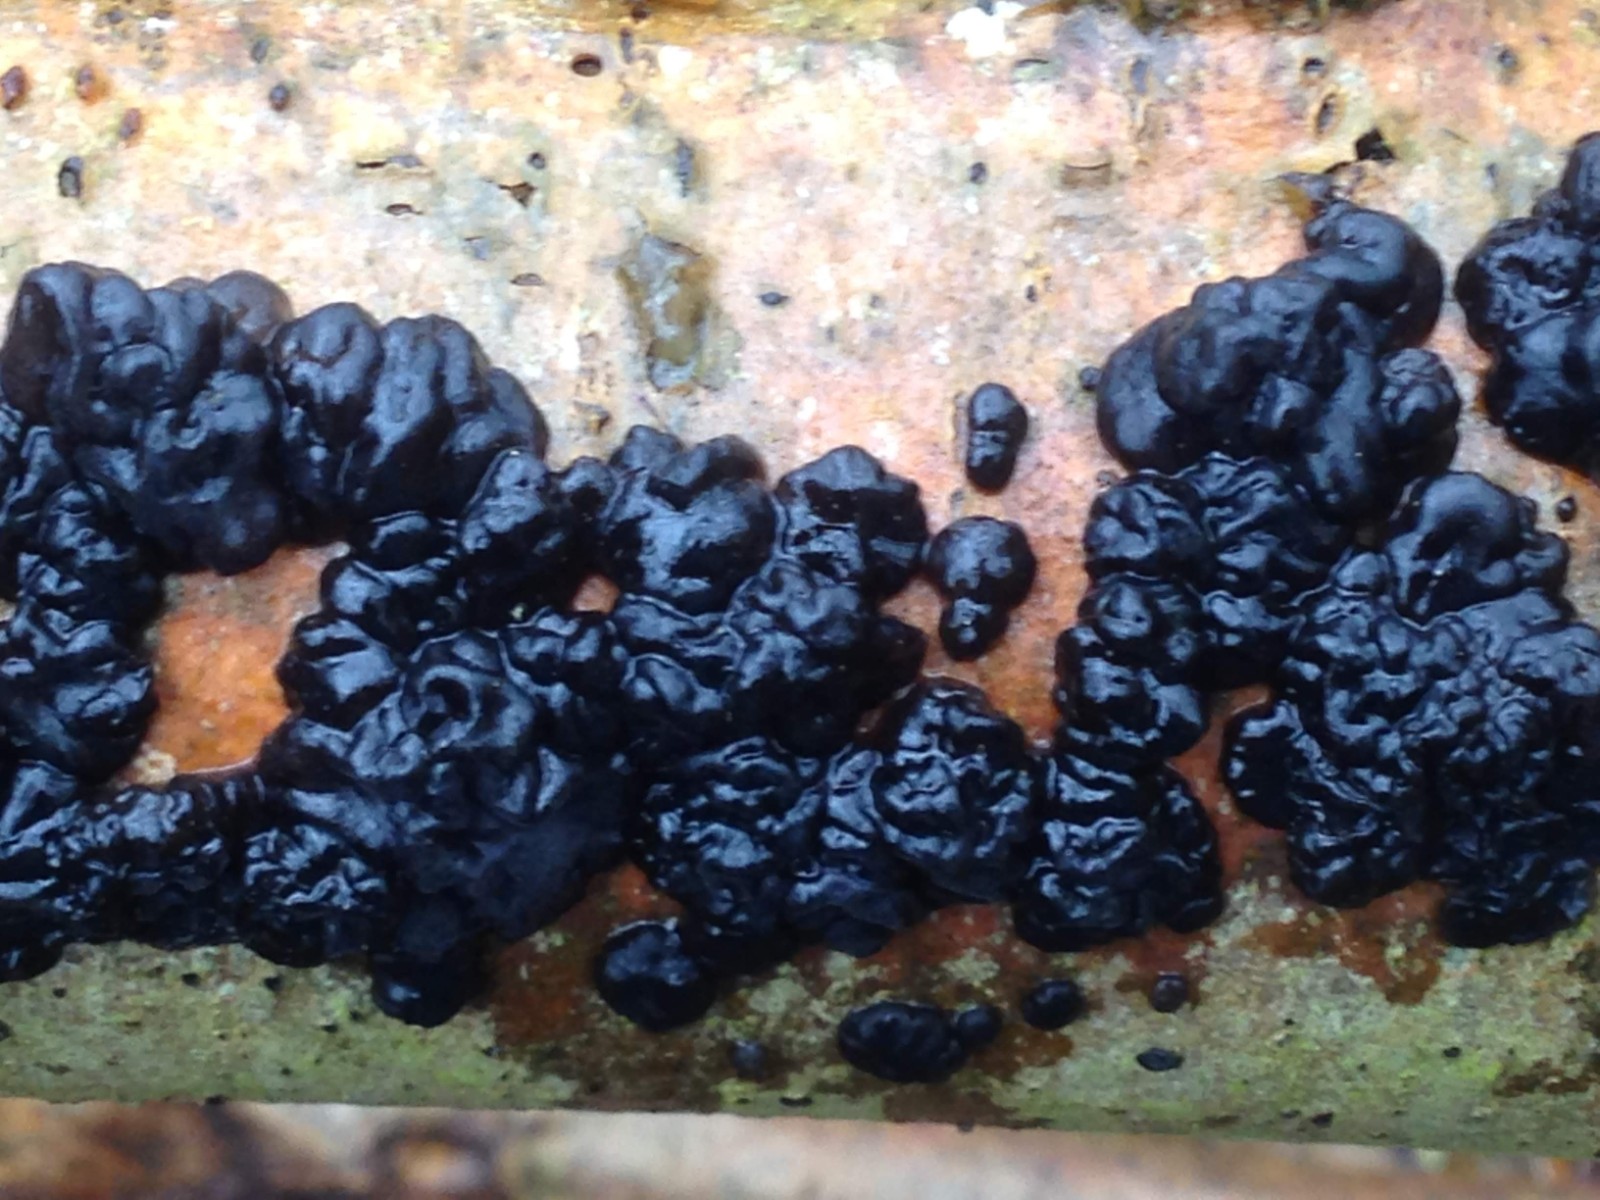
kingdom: Fungi
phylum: Basidiomycota
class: Agaricomycetes
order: Auriculariales
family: Auriculariaceae
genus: Exidia
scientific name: Exidia nigricans
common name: almindelig bævretop
